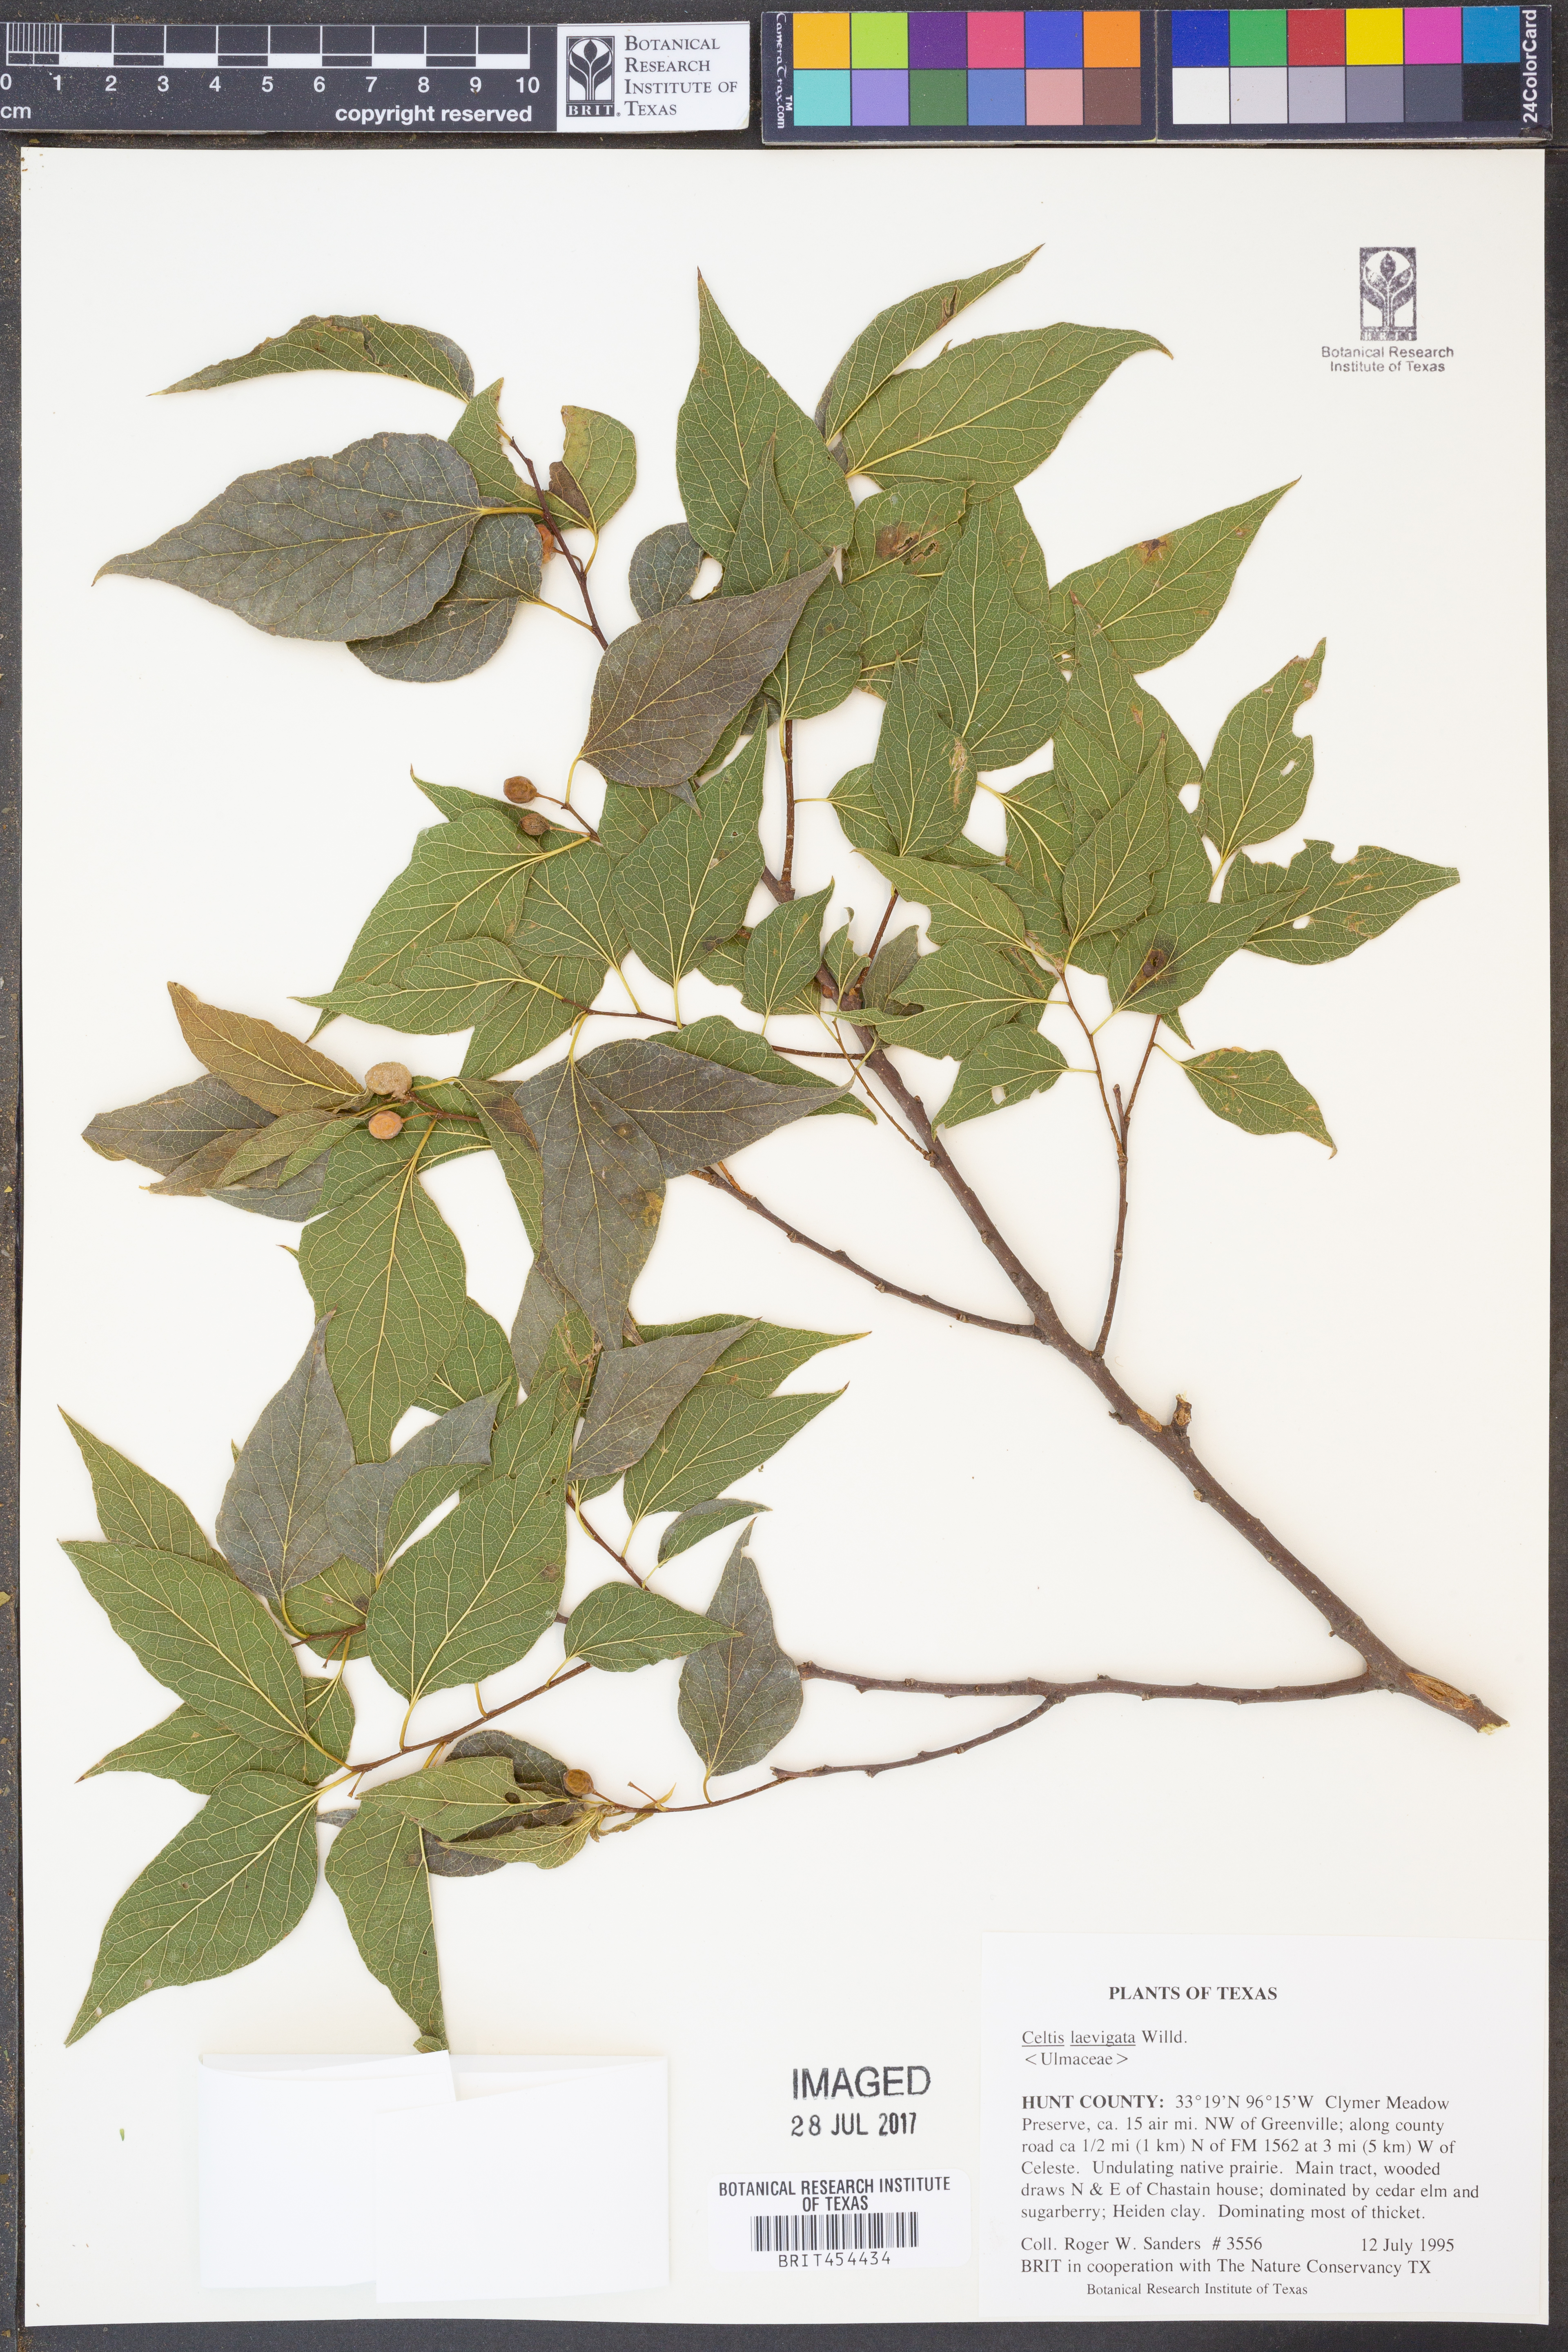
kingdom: Plantae
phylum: Tracheophyta
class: Magnoliopsida
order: Rosales
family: Cannabaceae
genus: Celtis
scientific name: Celtis laevigata
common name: Sugarberry
